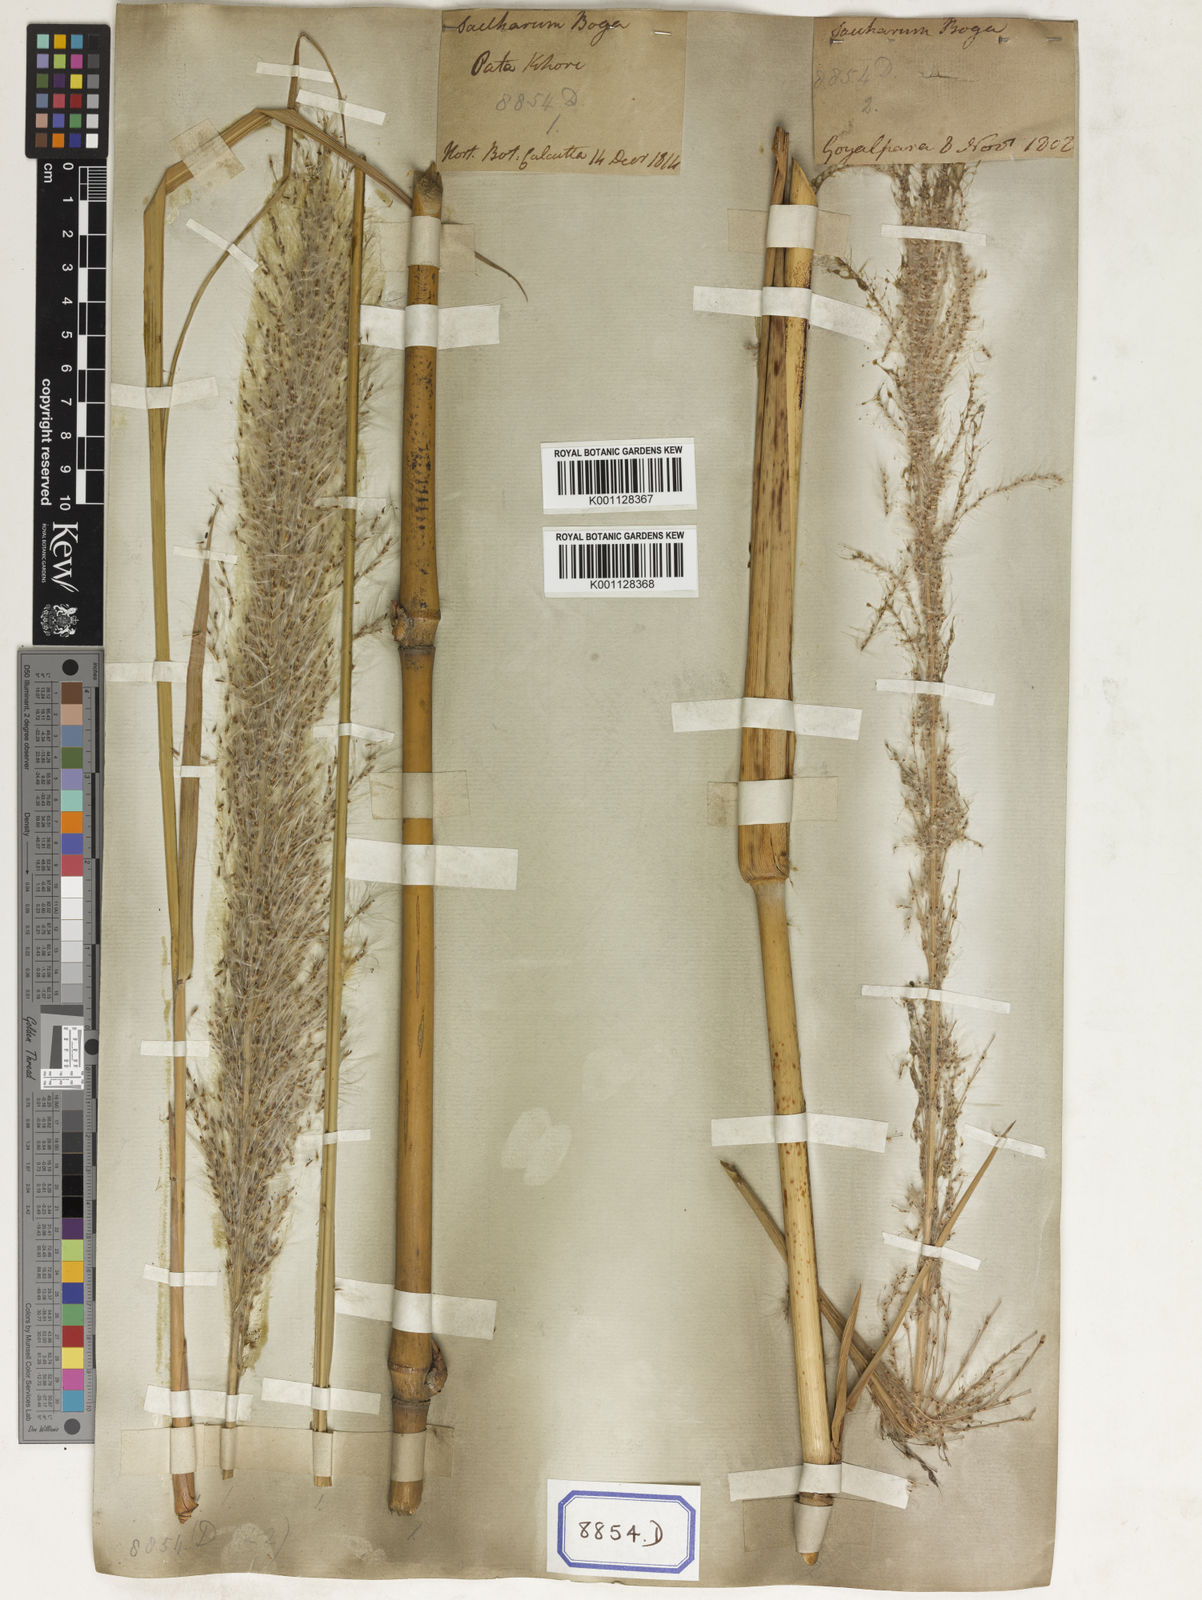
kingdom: Plantae
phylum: Tracheophyta
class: Liliopsida
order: Poales
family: Poaceae
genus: Saccharum
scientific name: Saccharum
